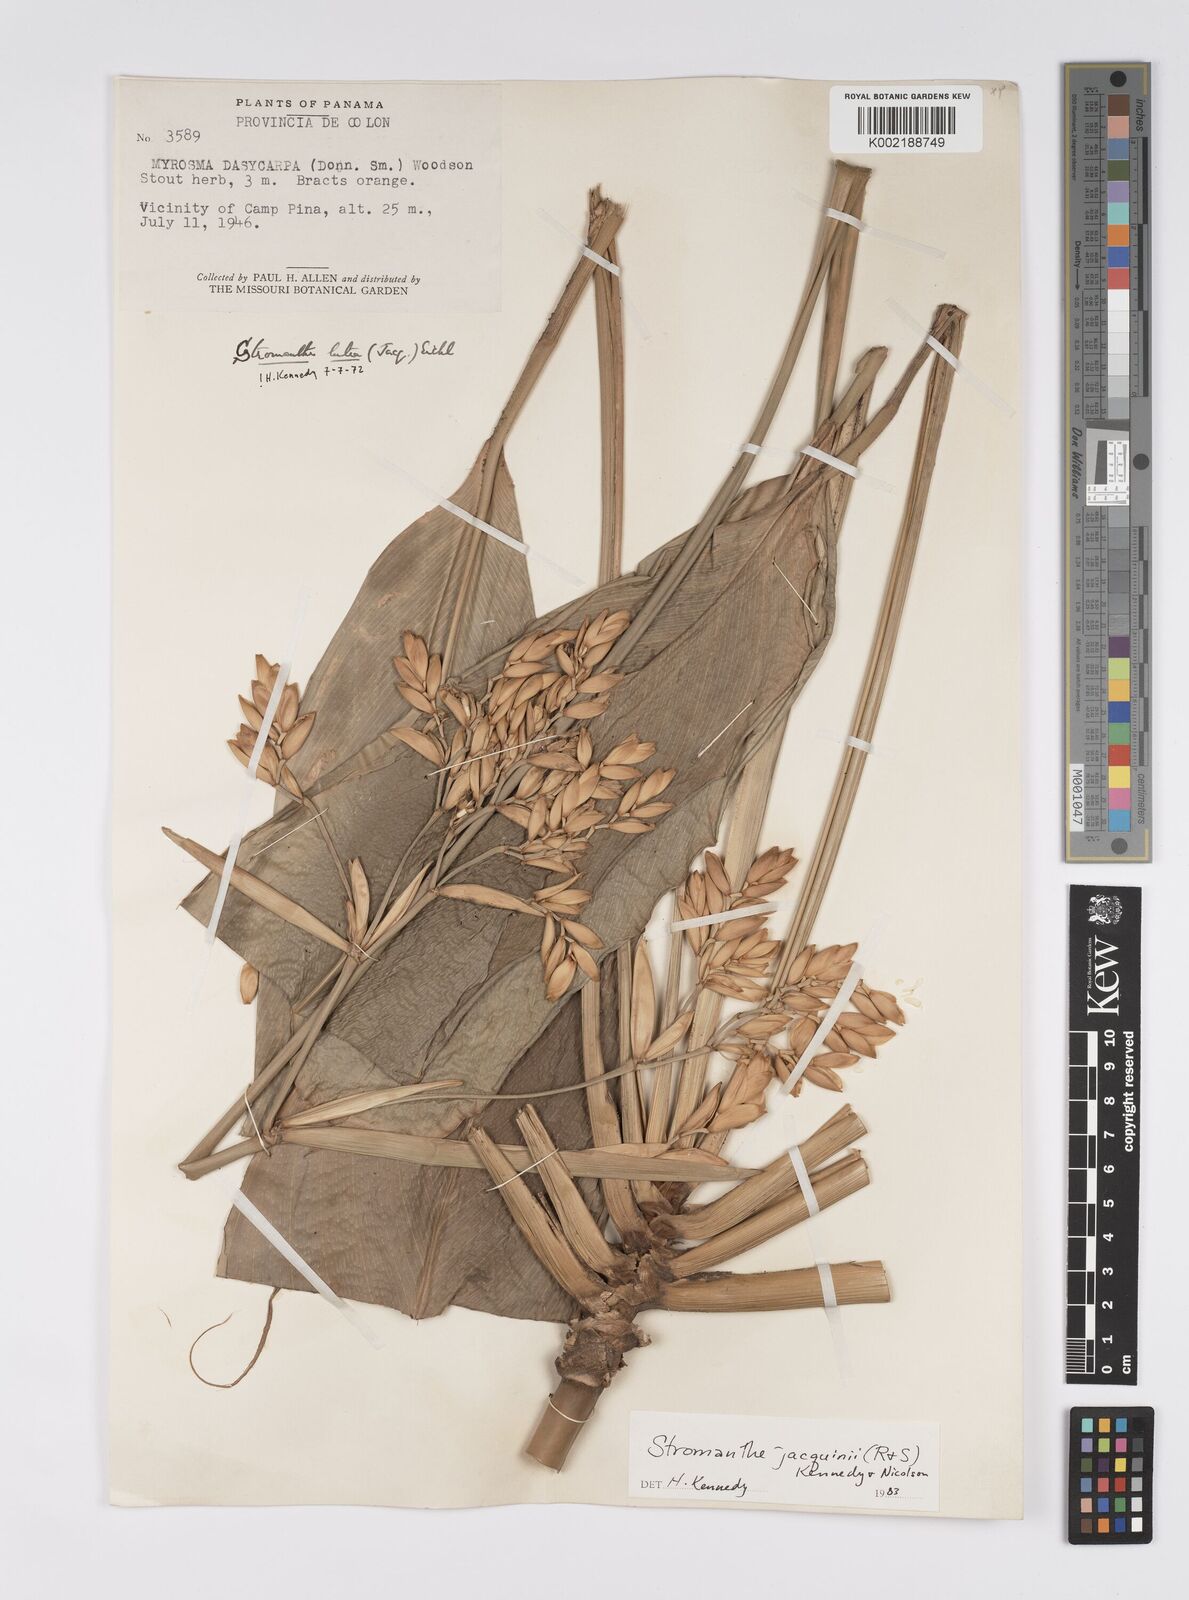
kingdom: Plantae
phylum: Tracheophyta
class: Liliopsida
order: Zingiberales
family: Marantaceae
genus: Stromanthe
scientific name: Stromanthe jacquinii
